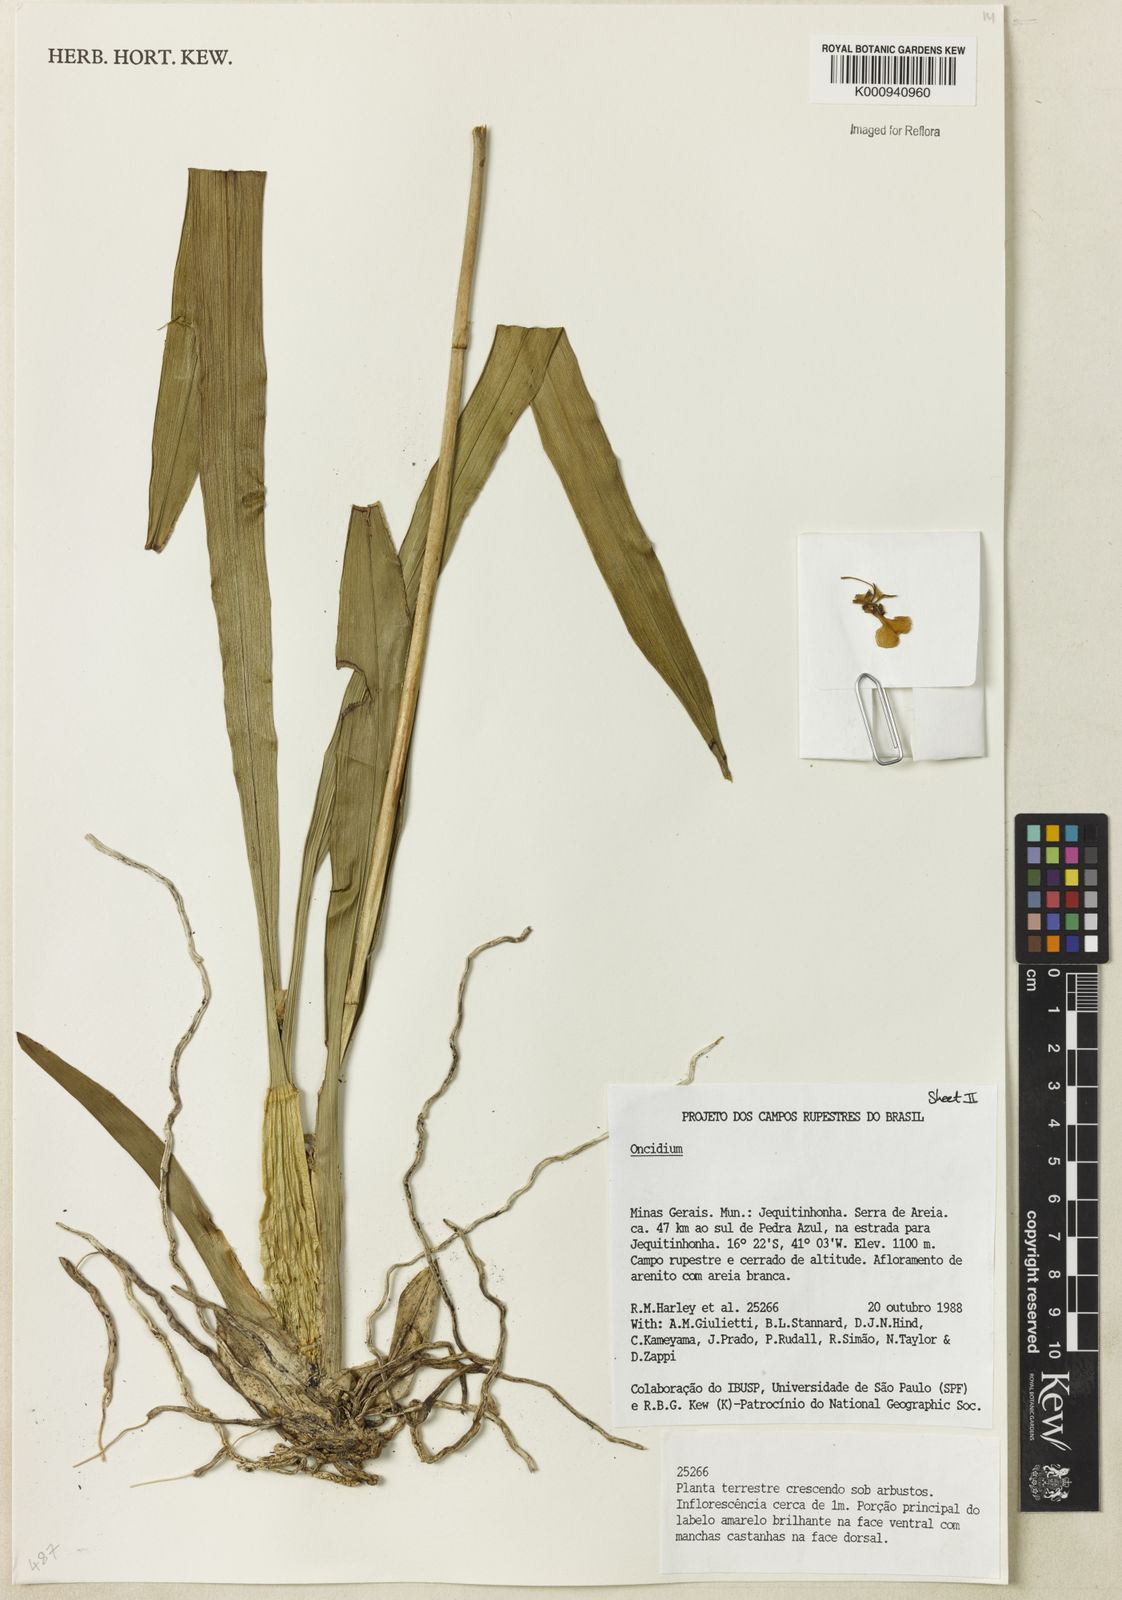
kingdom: Plantae
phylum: Tracheophyta
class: Liliopsida
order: Asparagales
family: Orchidaceae
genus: Oncidium
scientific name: Oncidium
